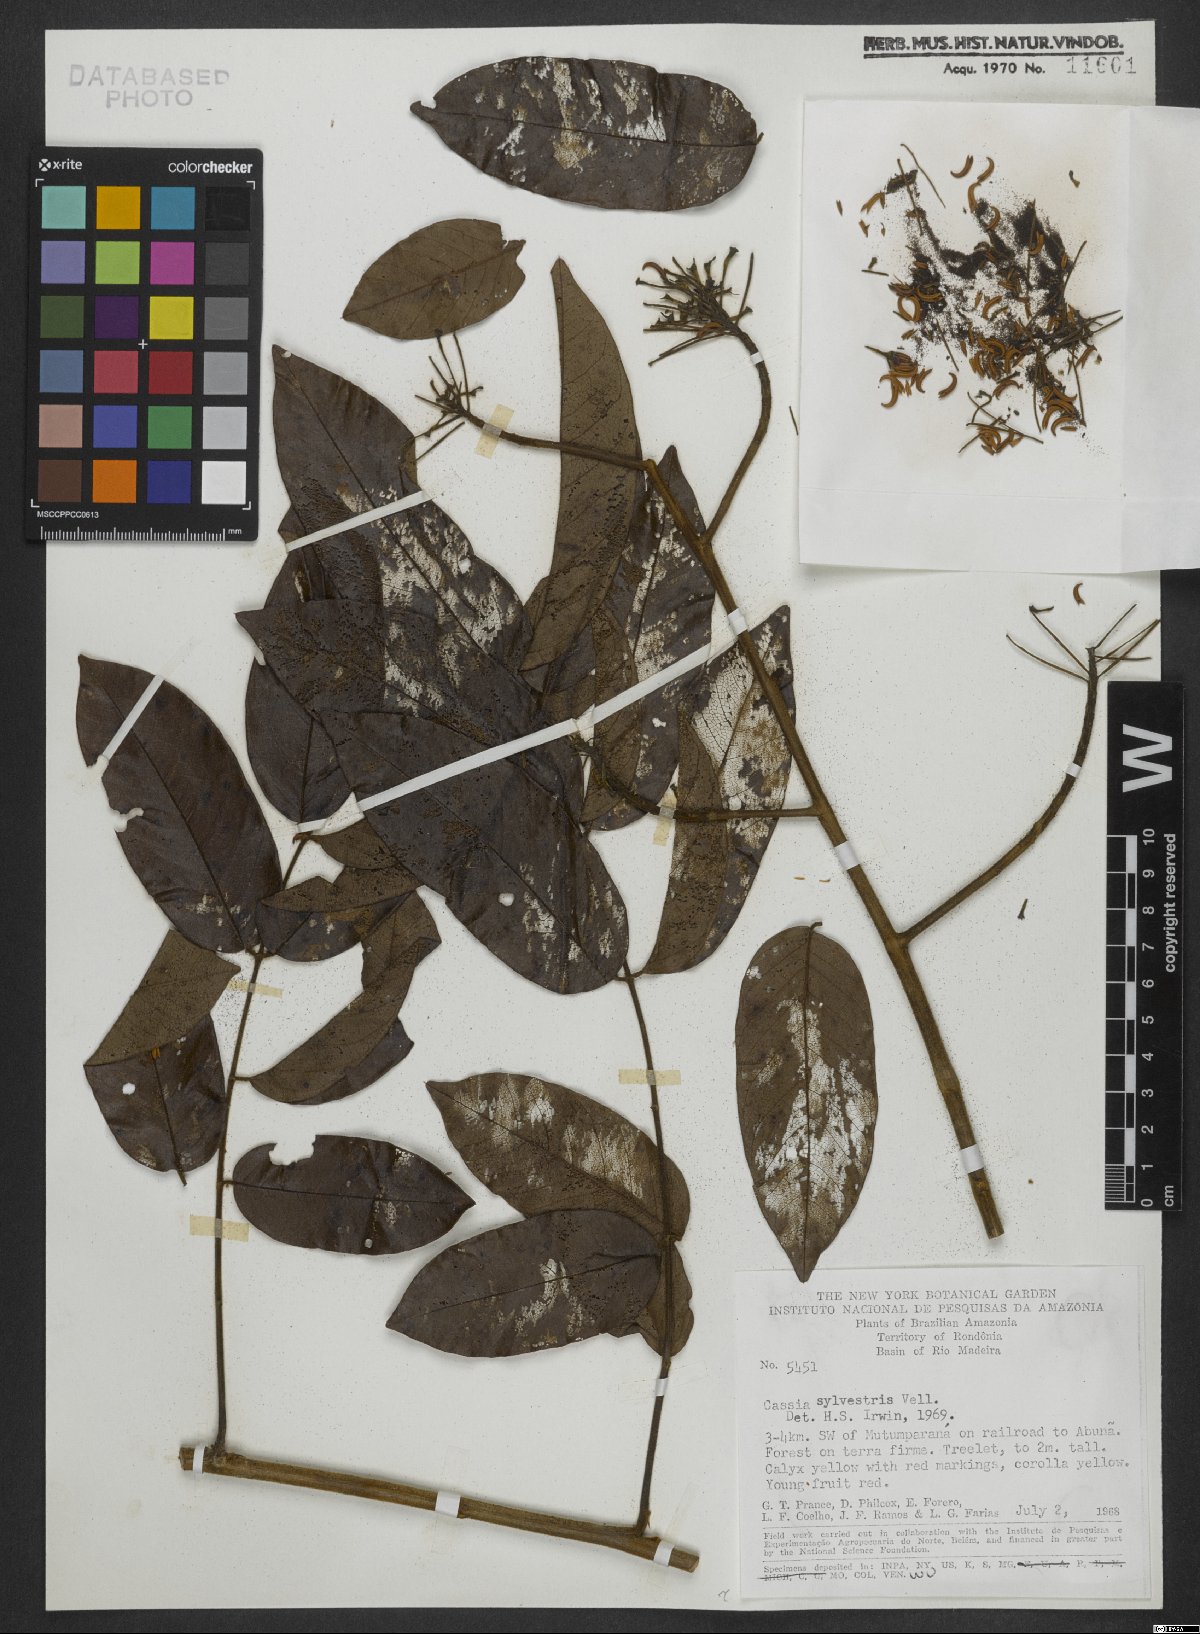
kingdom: Plantae
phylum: Tracheophyta
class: Magnoliopsida
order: Fabales
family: Fabaceae
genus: Senna
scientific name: Senna silvestris
